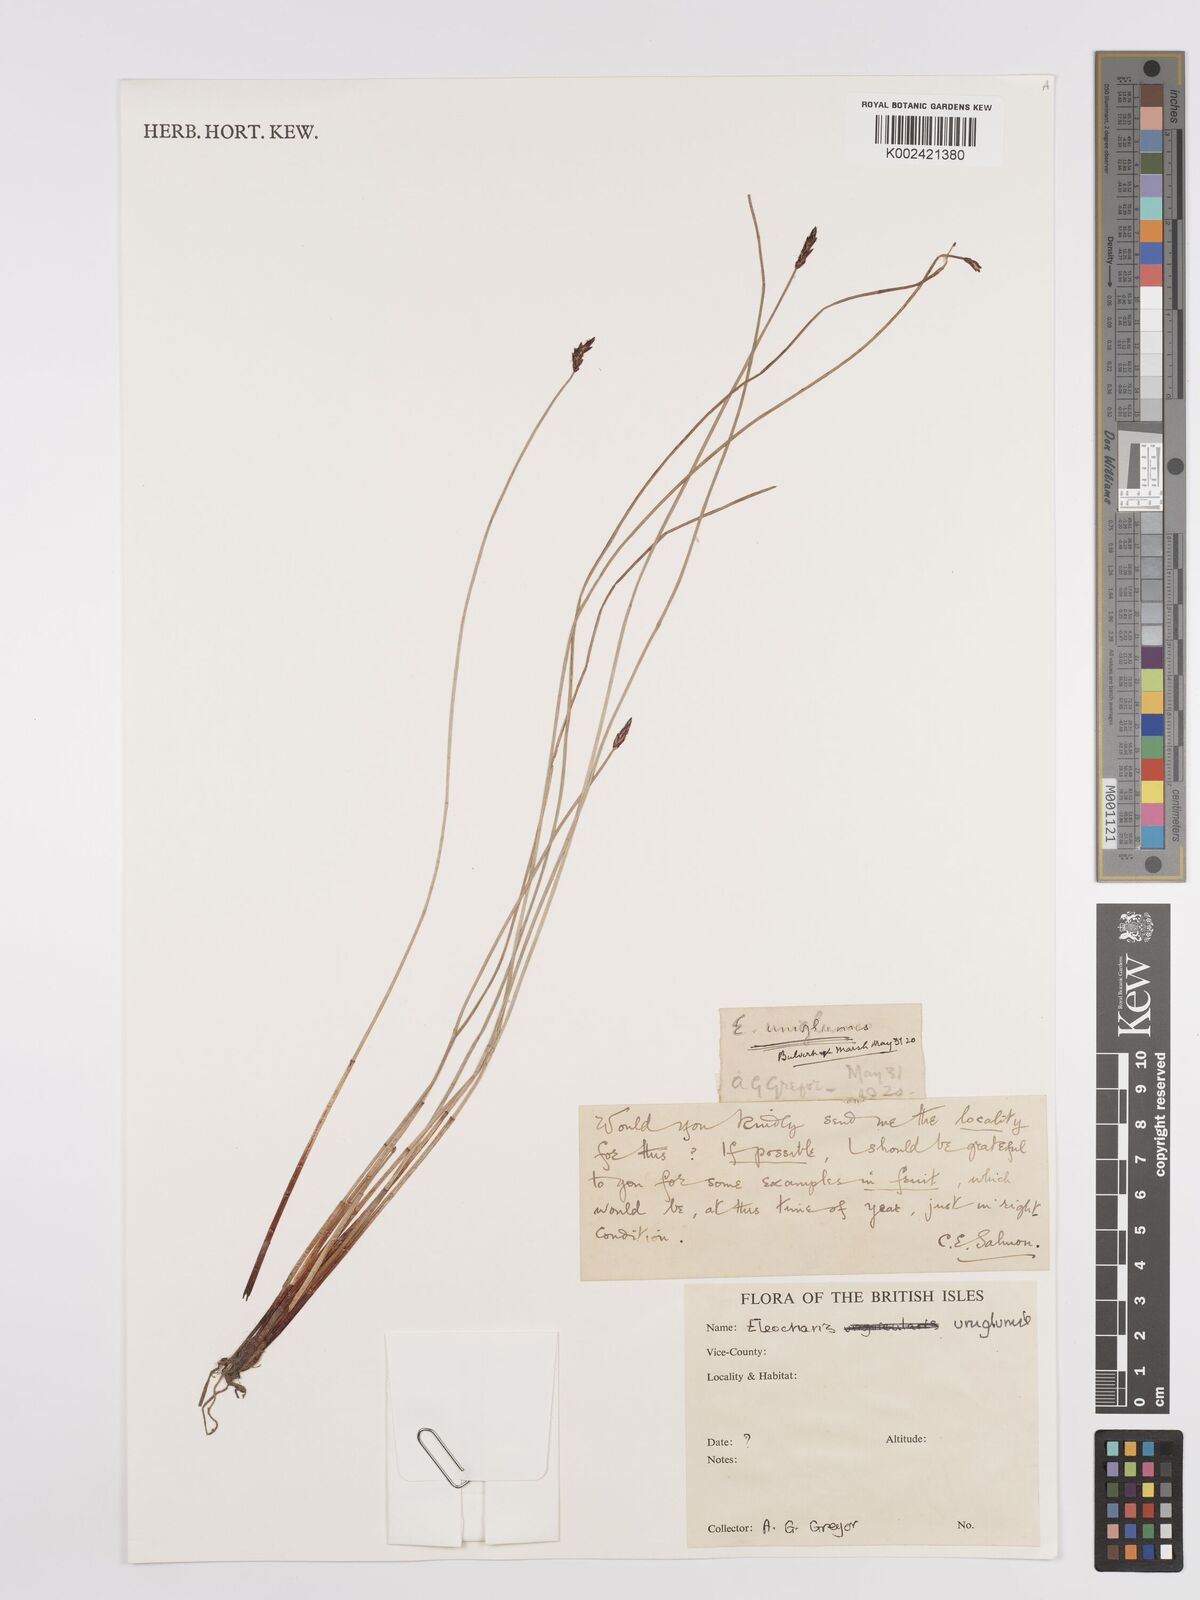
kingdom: Plantae
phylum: Tracheophyta
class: Liliopsida
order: Poales
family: Cyperaceae
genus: Eleocharis
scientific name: Eleocharis uniglumis
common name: Slender spike-rush
